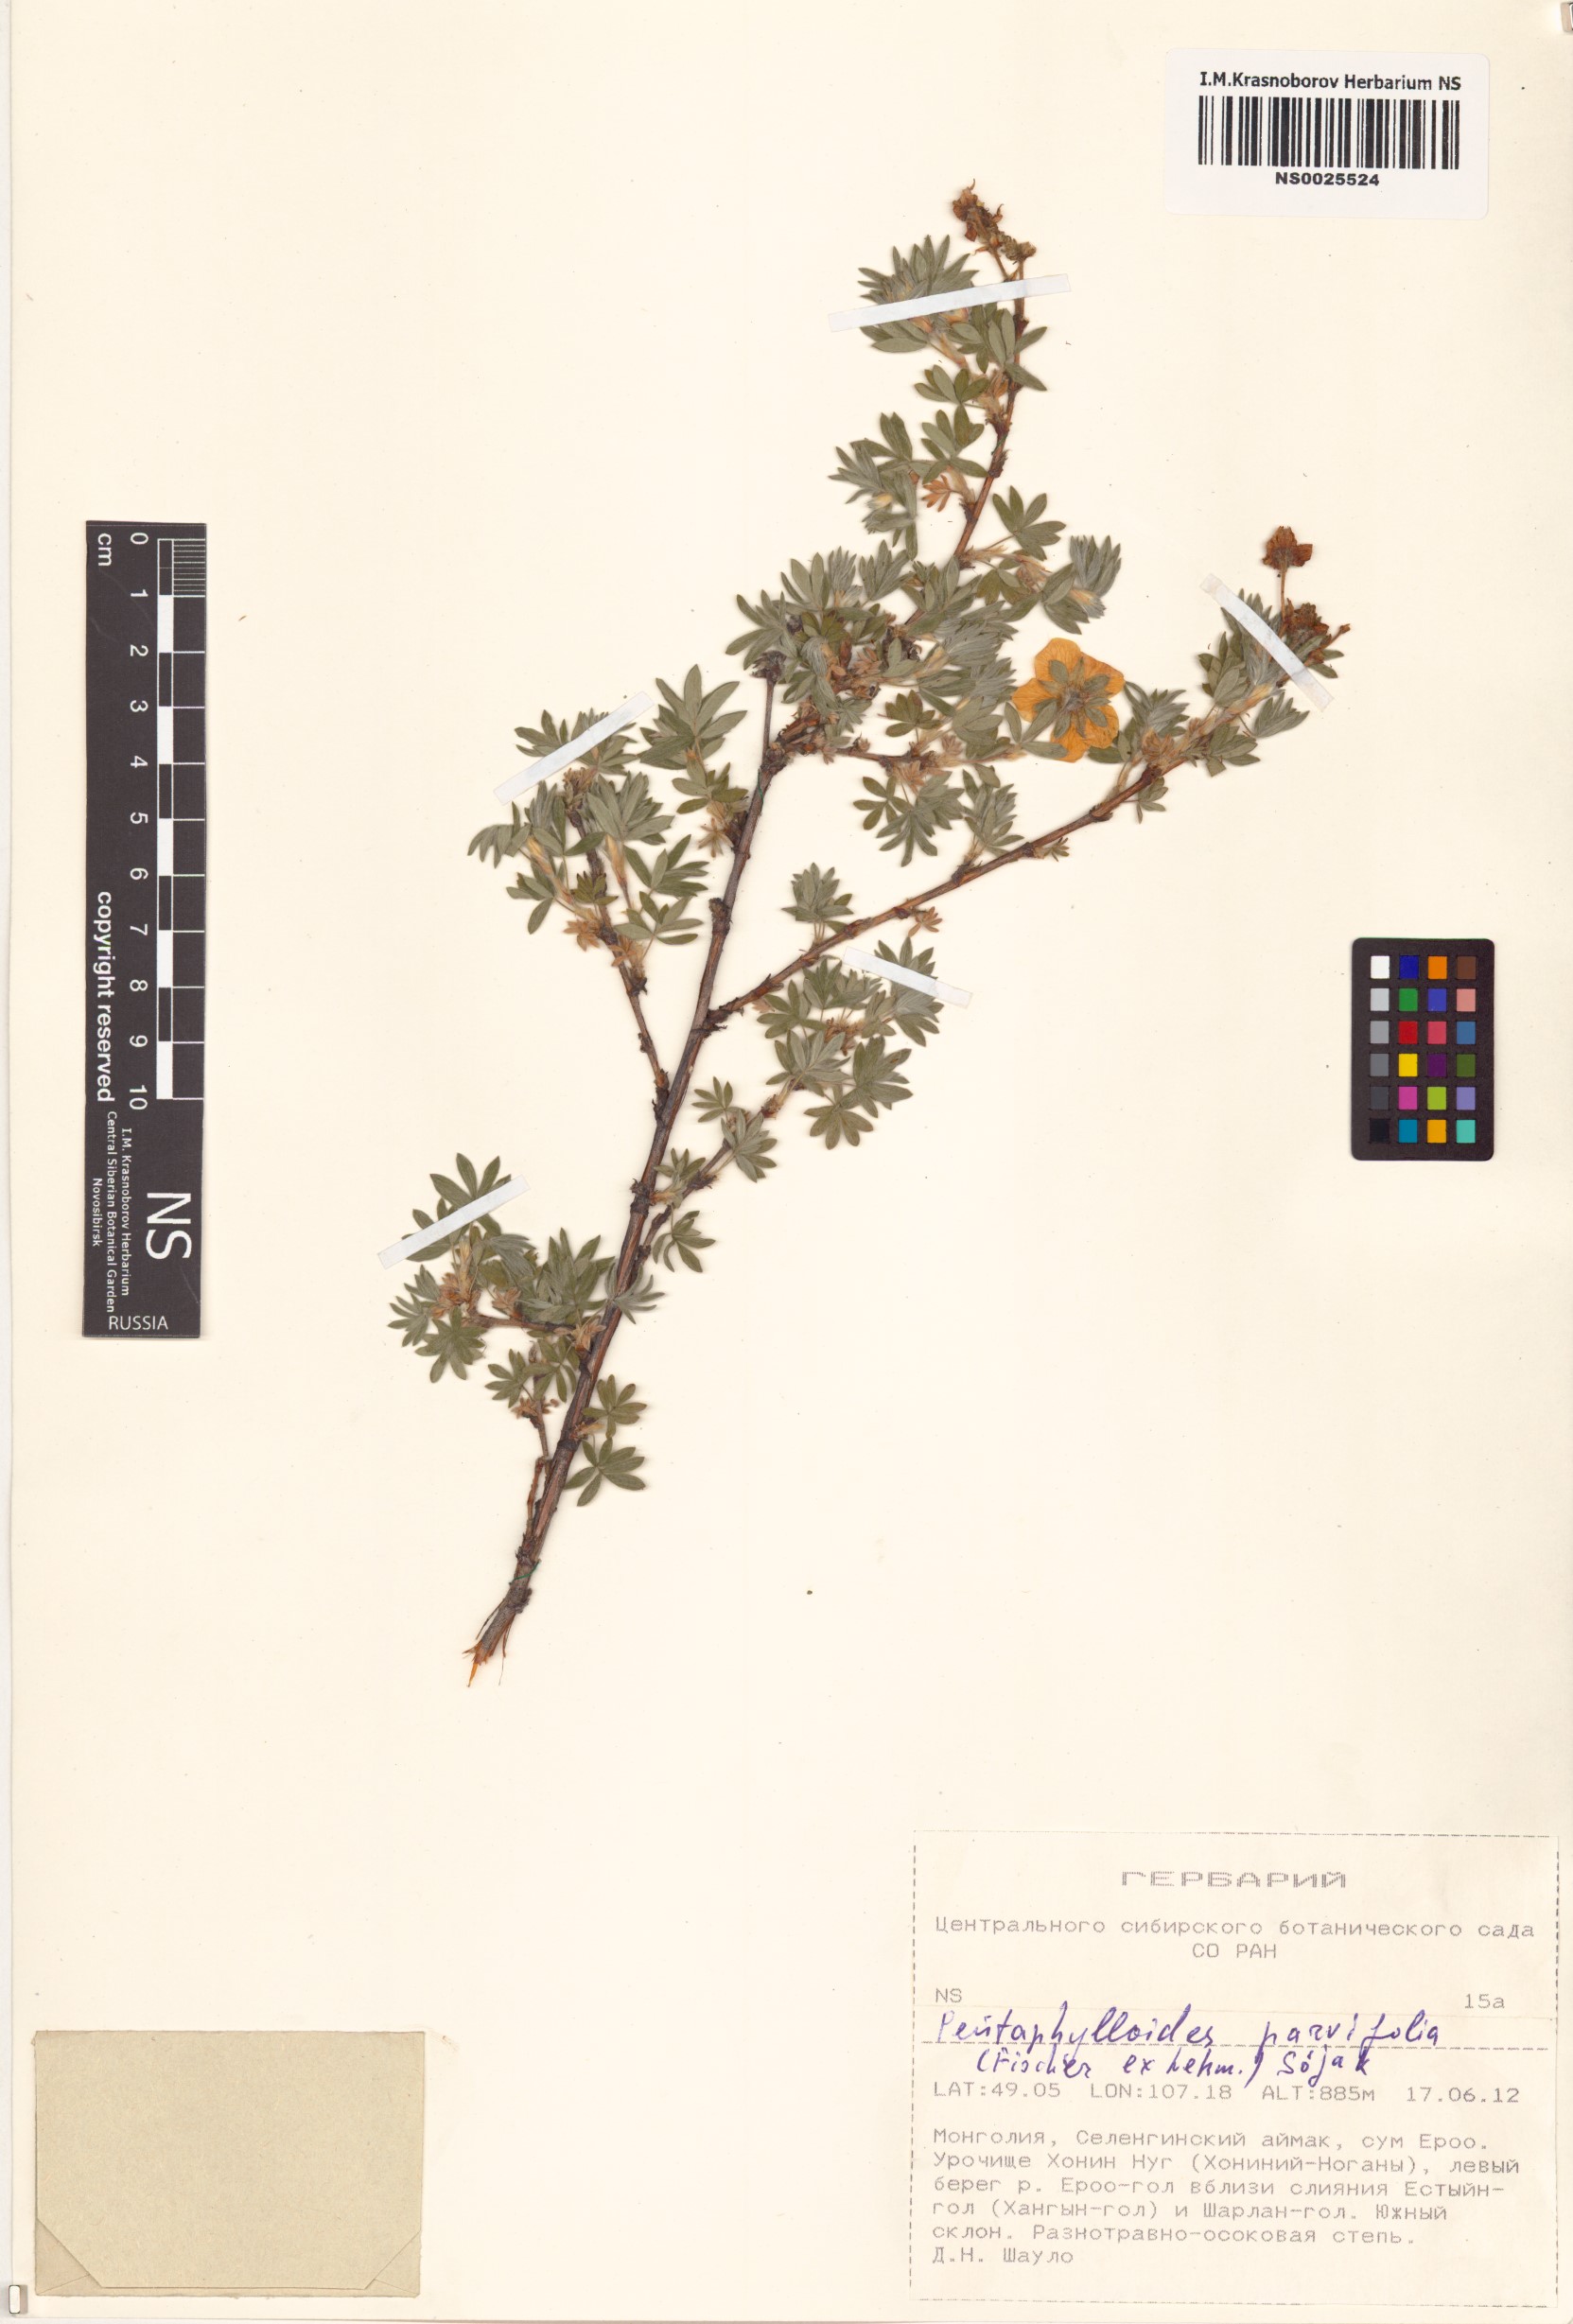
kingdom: Plantae
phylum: Tracheophyta
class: Magnoliopsida
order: Rosales
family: Rosaceae
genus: Dasiphora
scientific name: Dasiphora parvifolia
